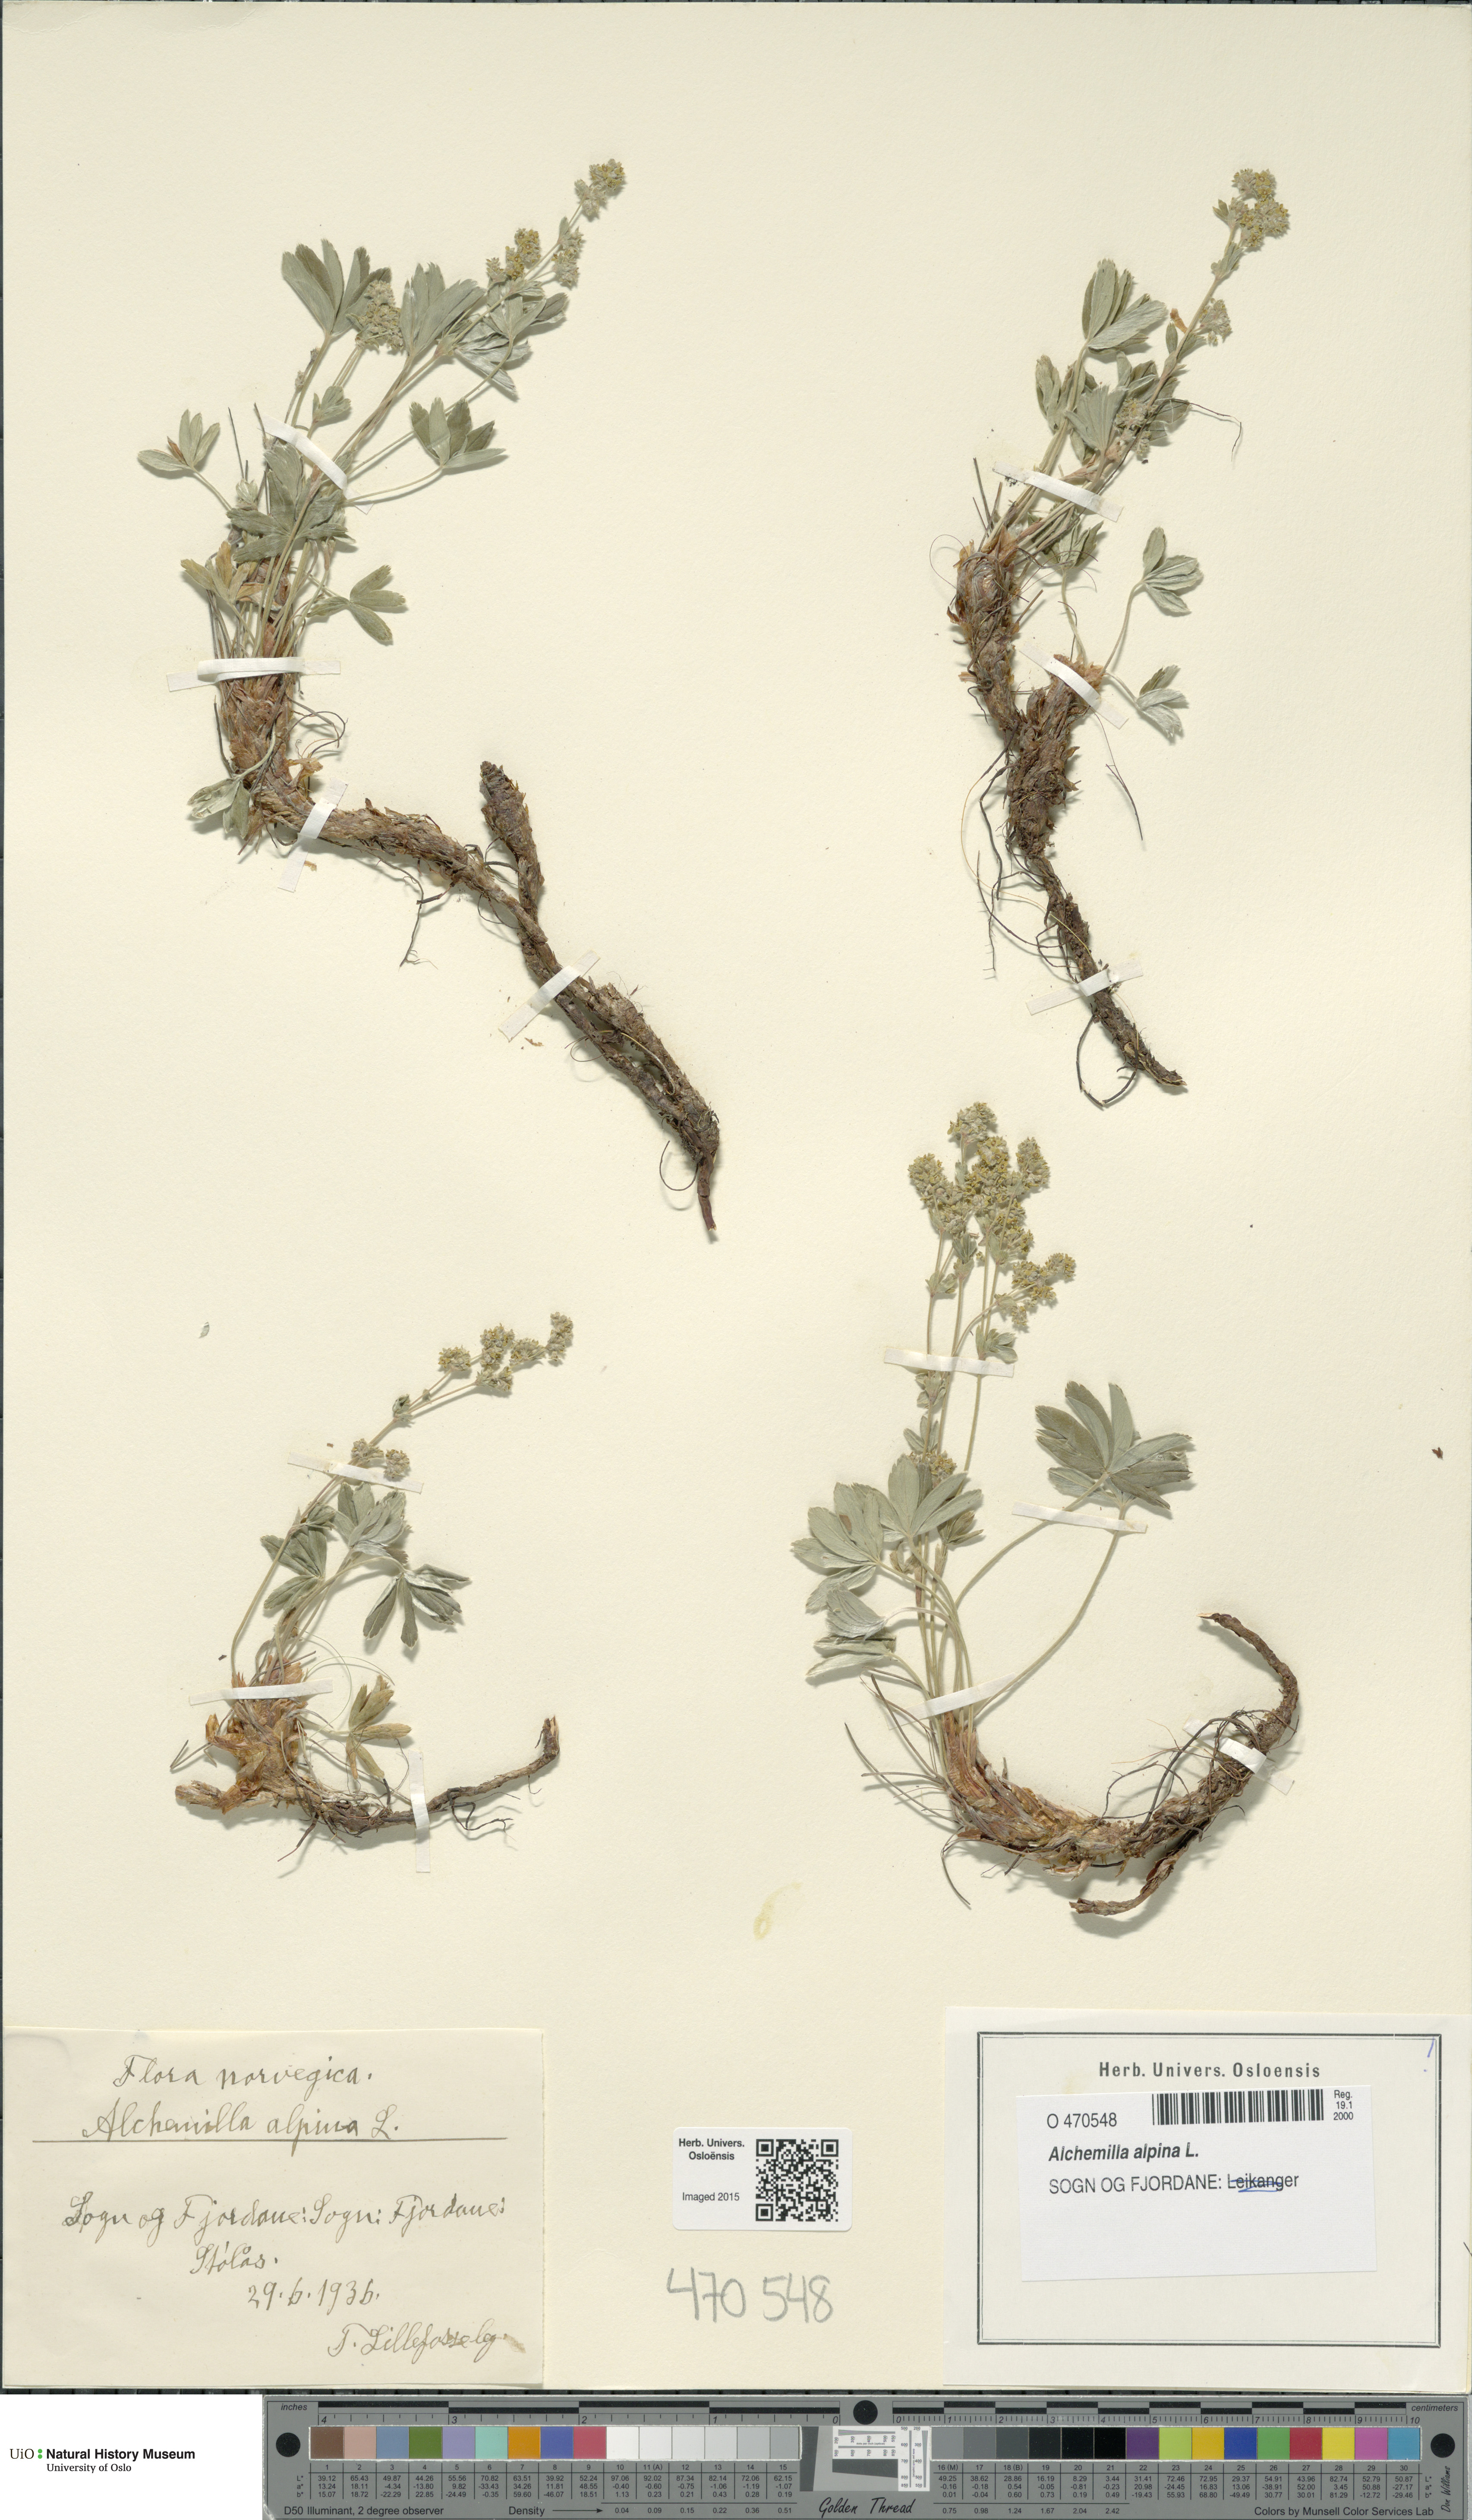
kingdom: Plantae
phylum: Tracheophyta
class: Magnoliopsida
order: Rosales
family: Rosaceae
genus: Alchemilla
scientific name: Alchemilla alpina
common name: Alpine lady's-mantle
